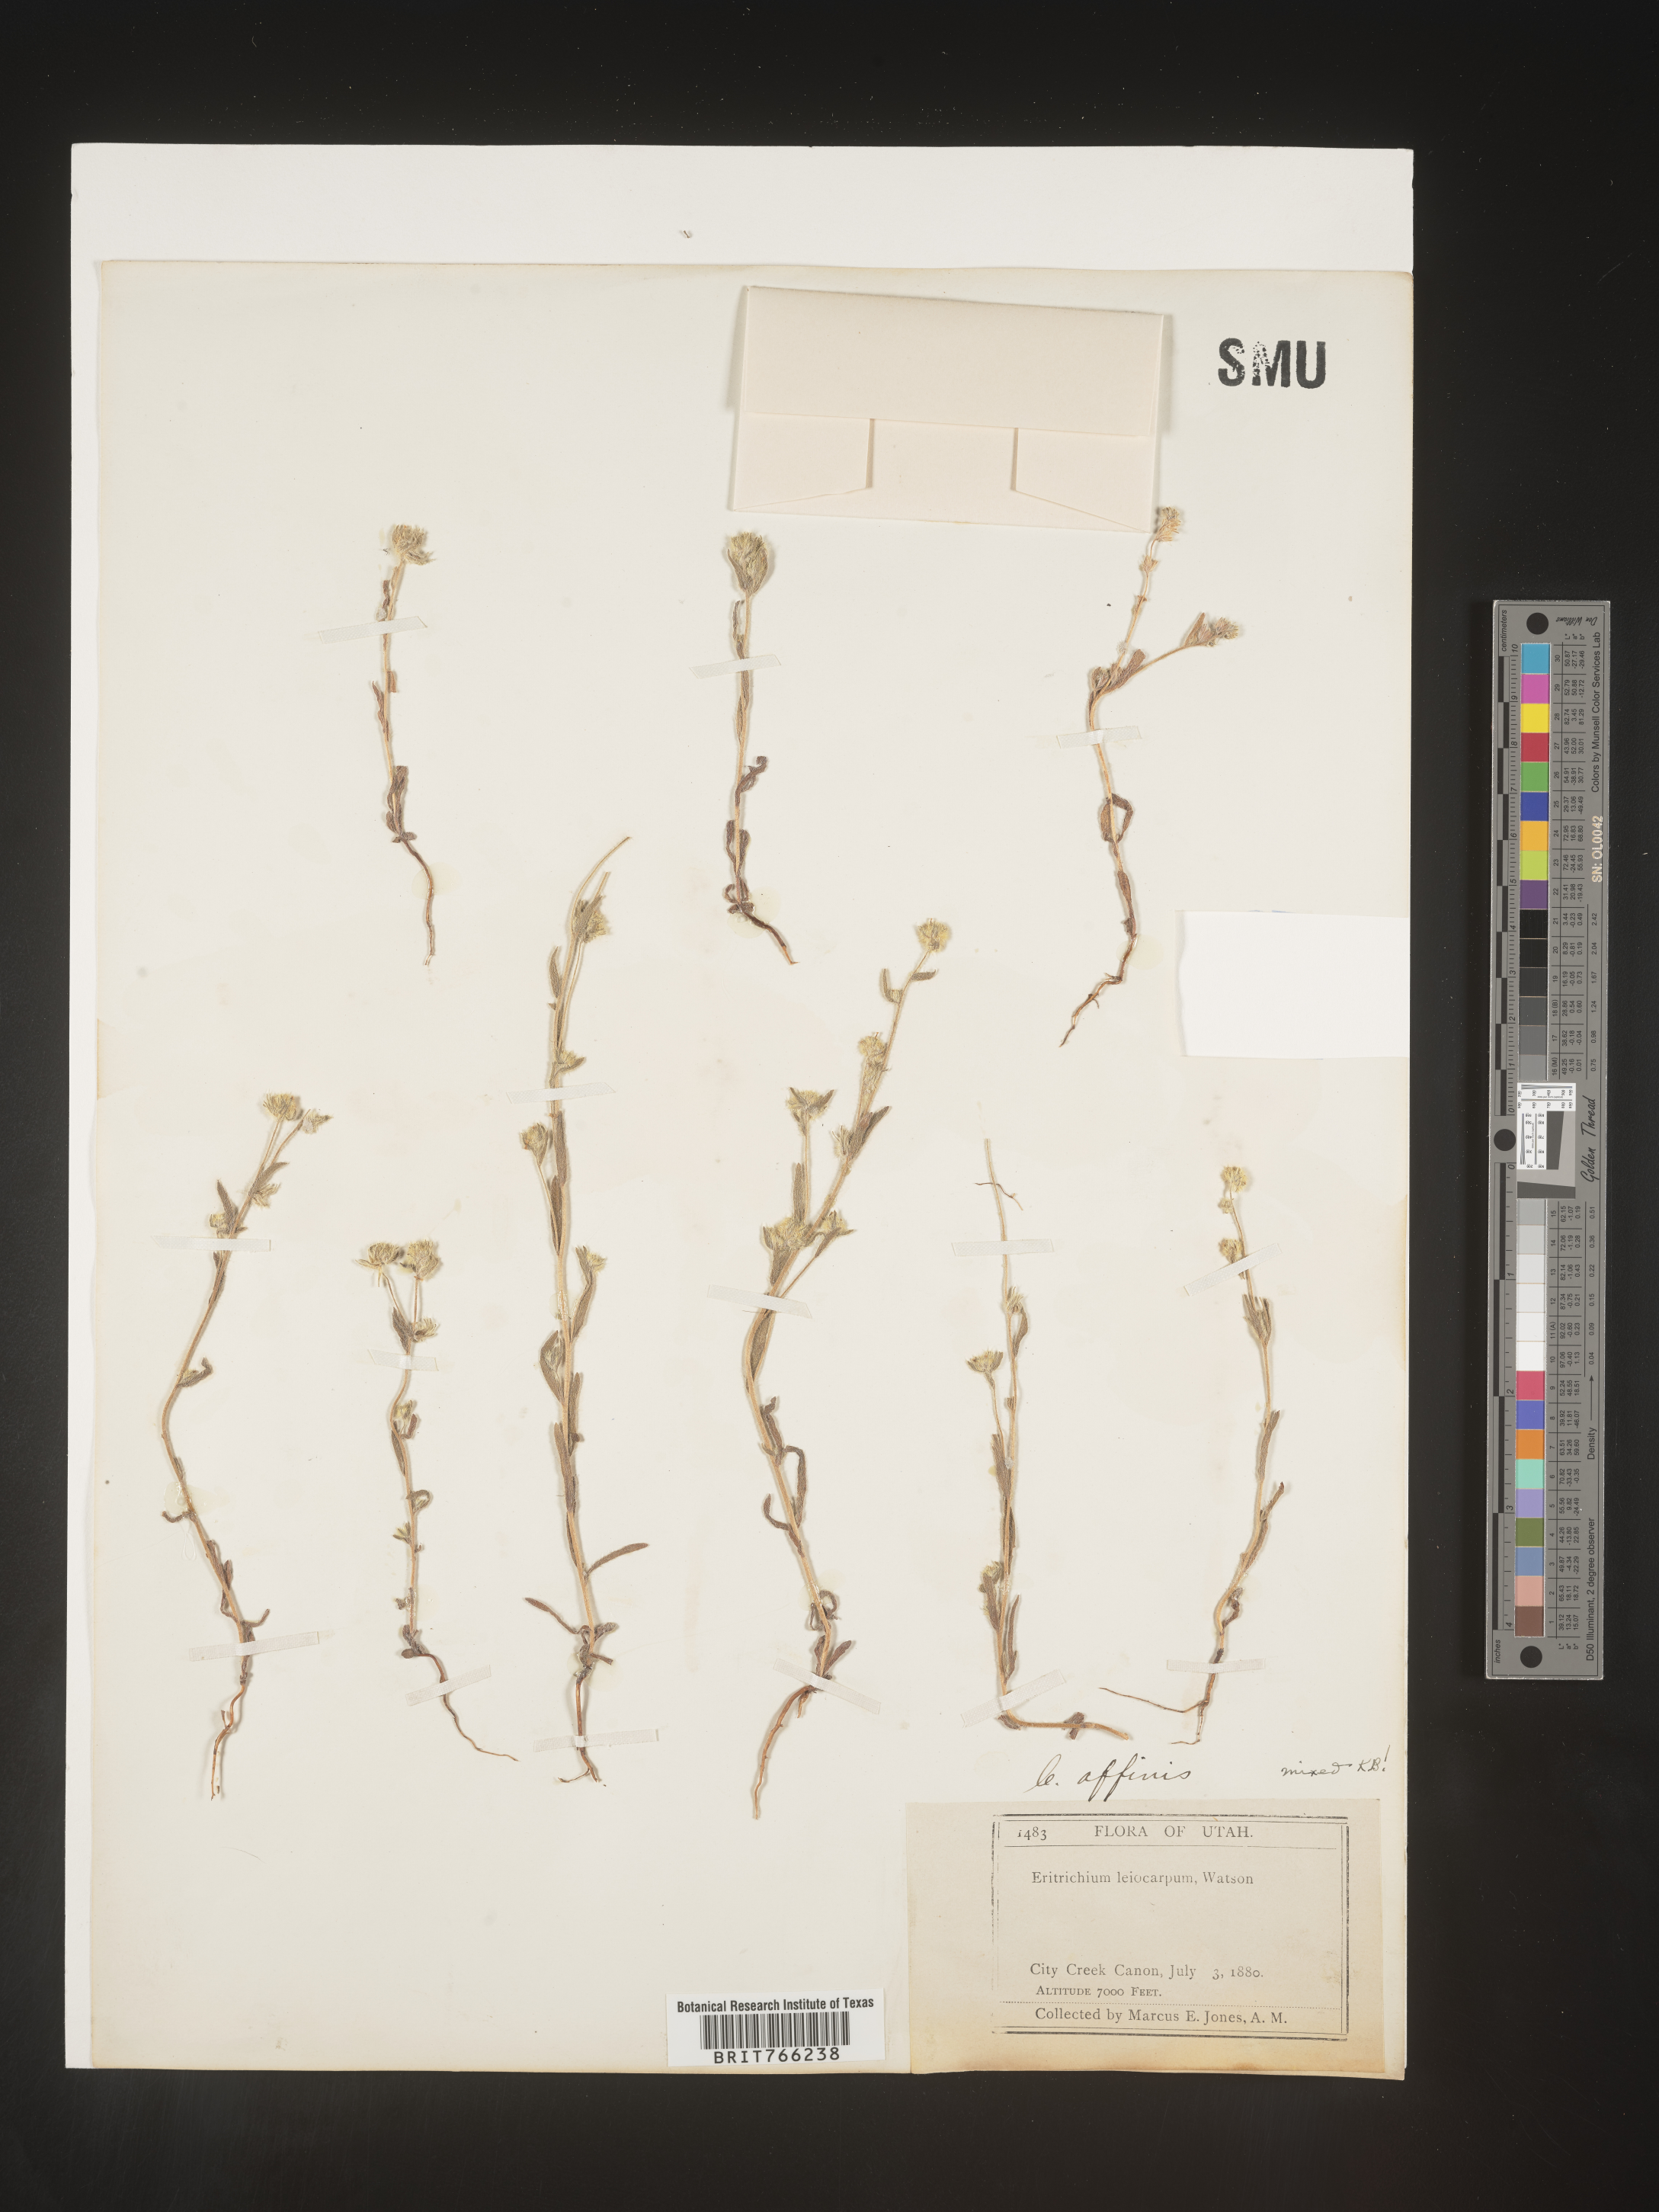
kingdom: Plantae
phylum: Tracheophyta
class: Magnoliopsida
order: Boraginales
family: Boraginaceae
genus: Cryptantha
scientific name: Cryptantha
